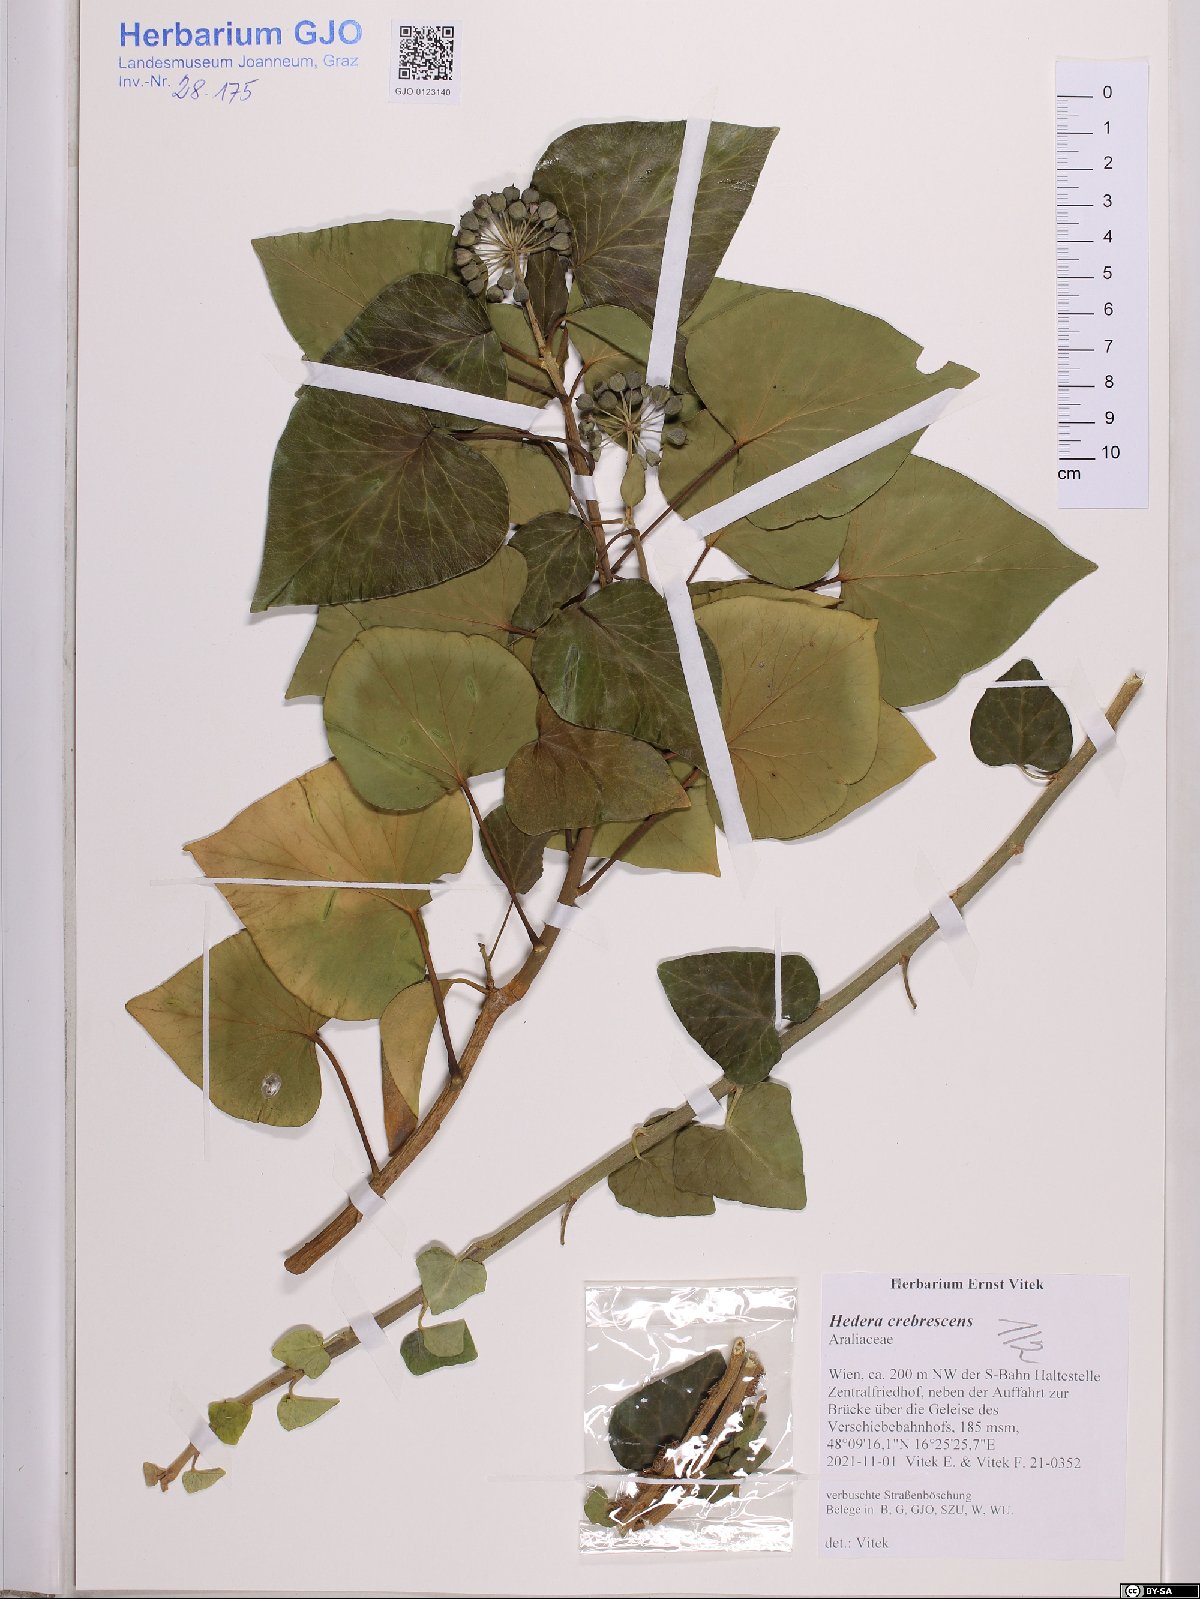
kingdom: Plantae
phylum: Tracheophyta
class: Magnoliopsida
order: Apiales
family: Araliaceae
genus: Hedera
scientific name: Hedera crebrescens
